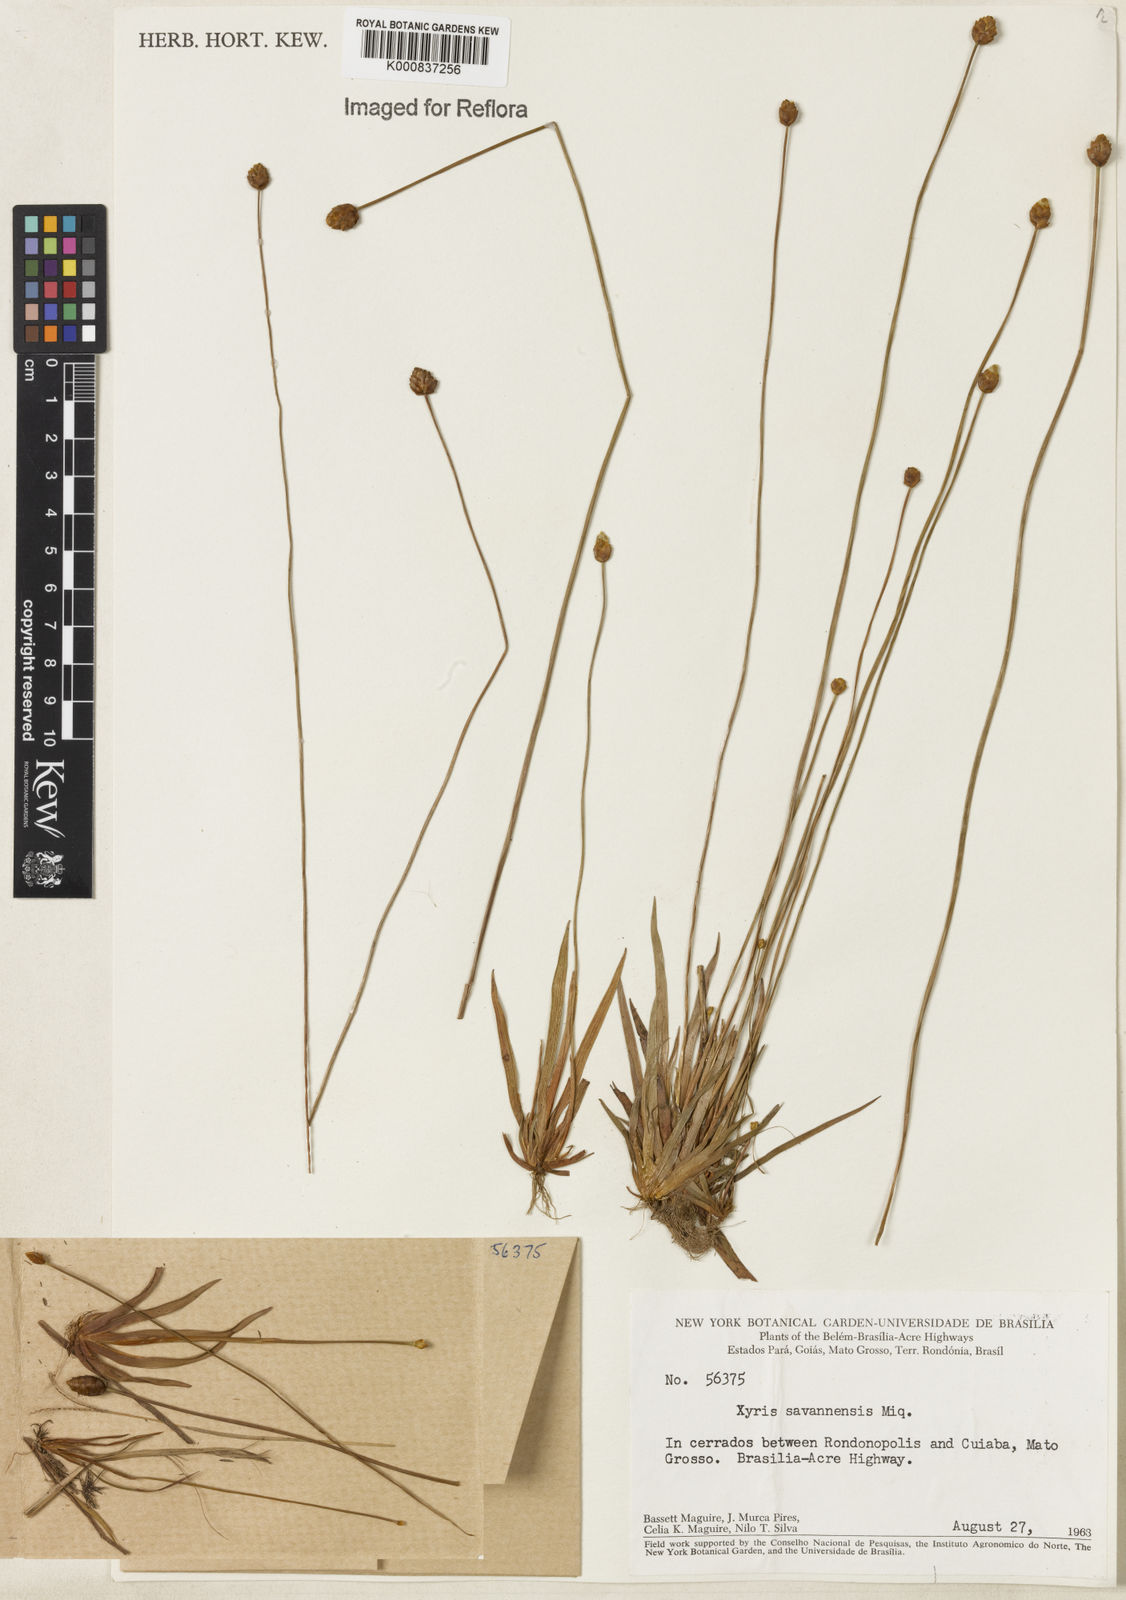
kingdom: Plantae
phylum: Tracheophyta
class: Liliopsida
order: Poales
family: Xyridaceae
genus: Xyris
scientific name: Xyris savanensis
